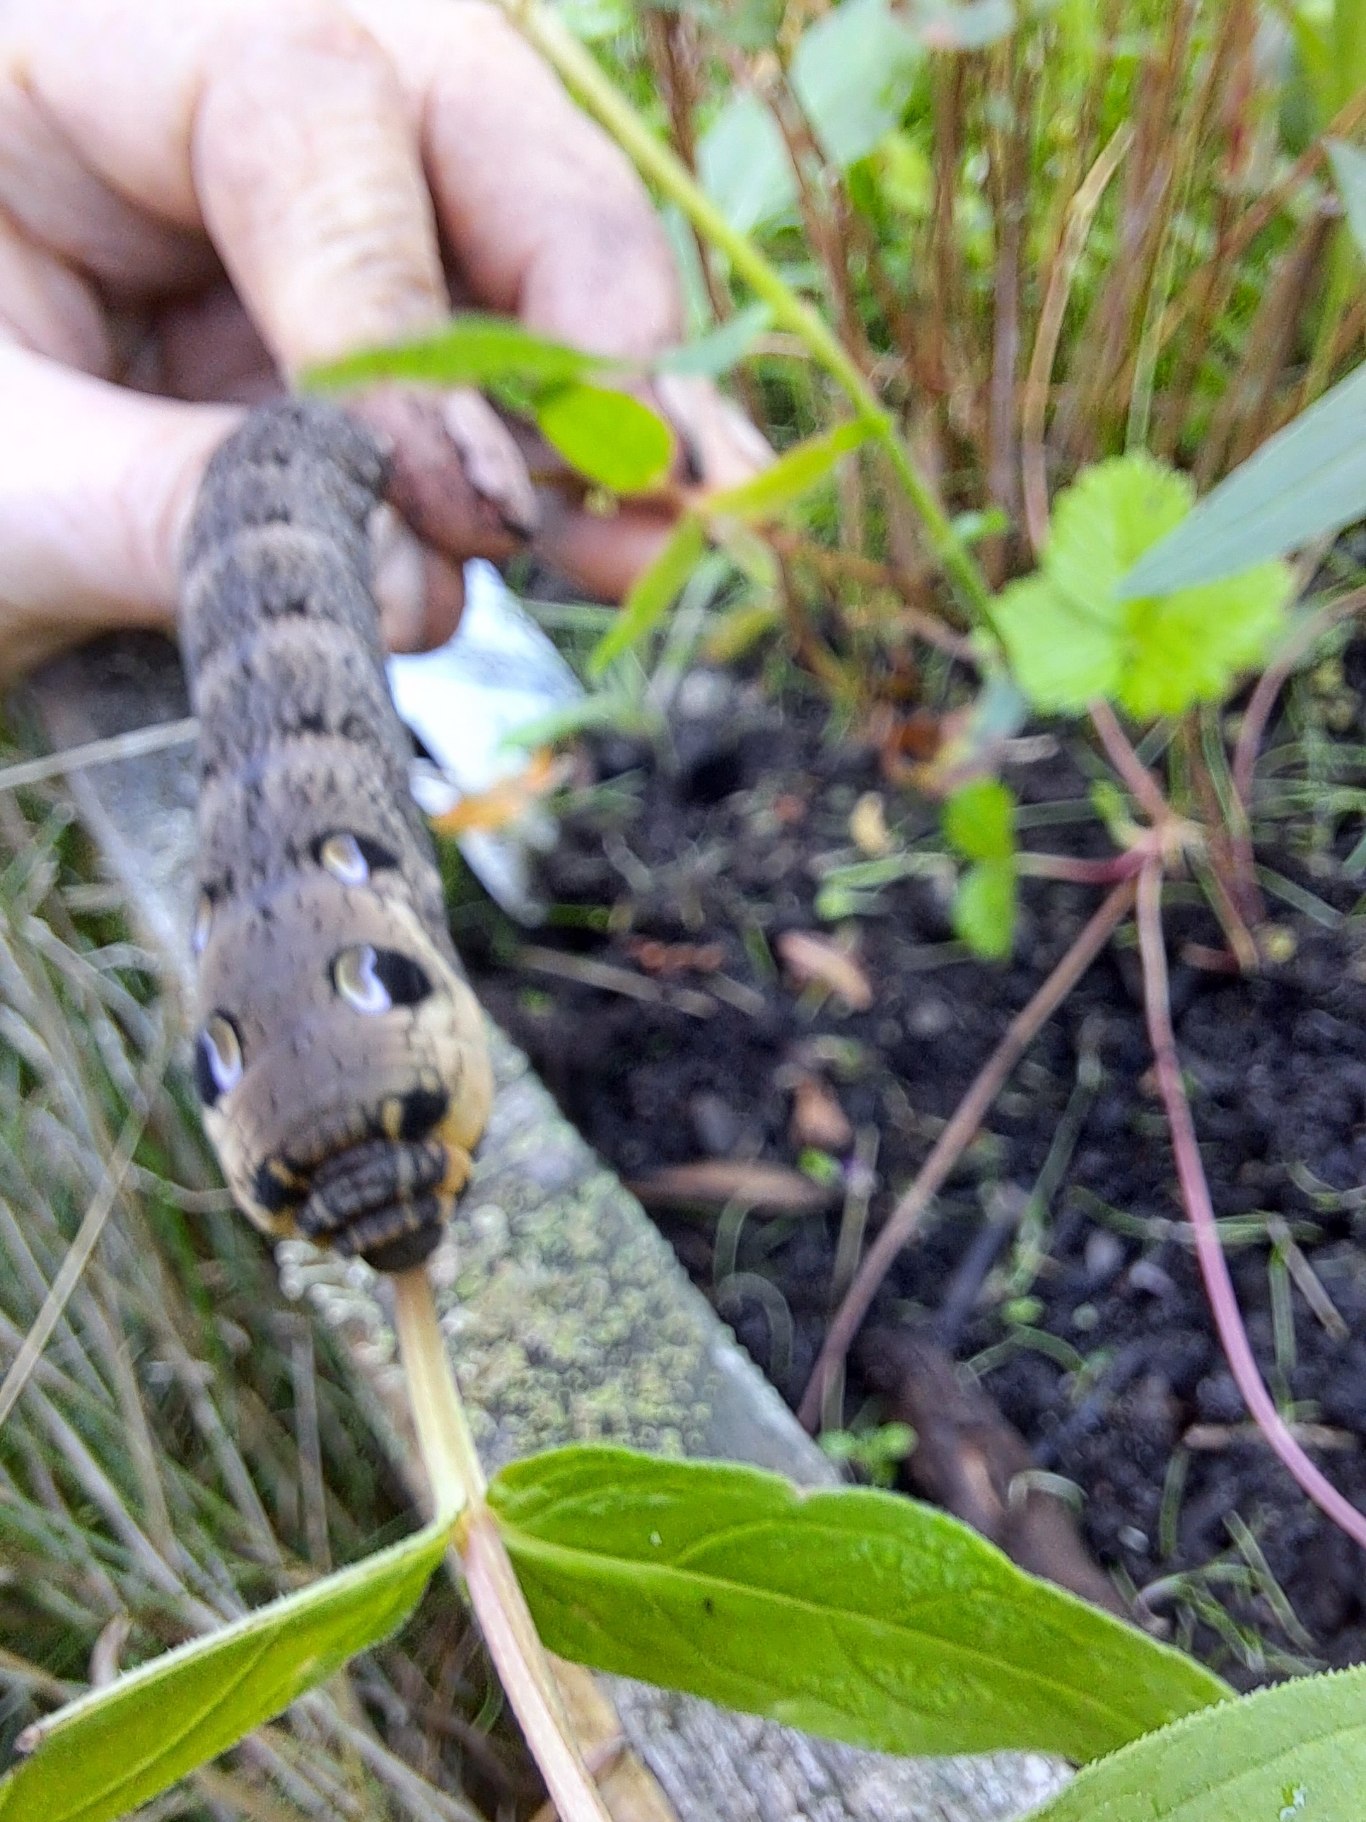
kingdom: Animalia
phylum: Arthropoda
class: Insecta
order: Lepidoptera
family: Sphingidae
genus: Deilephila
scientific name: Deilephila elpenor
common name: Dueurtsværmer
